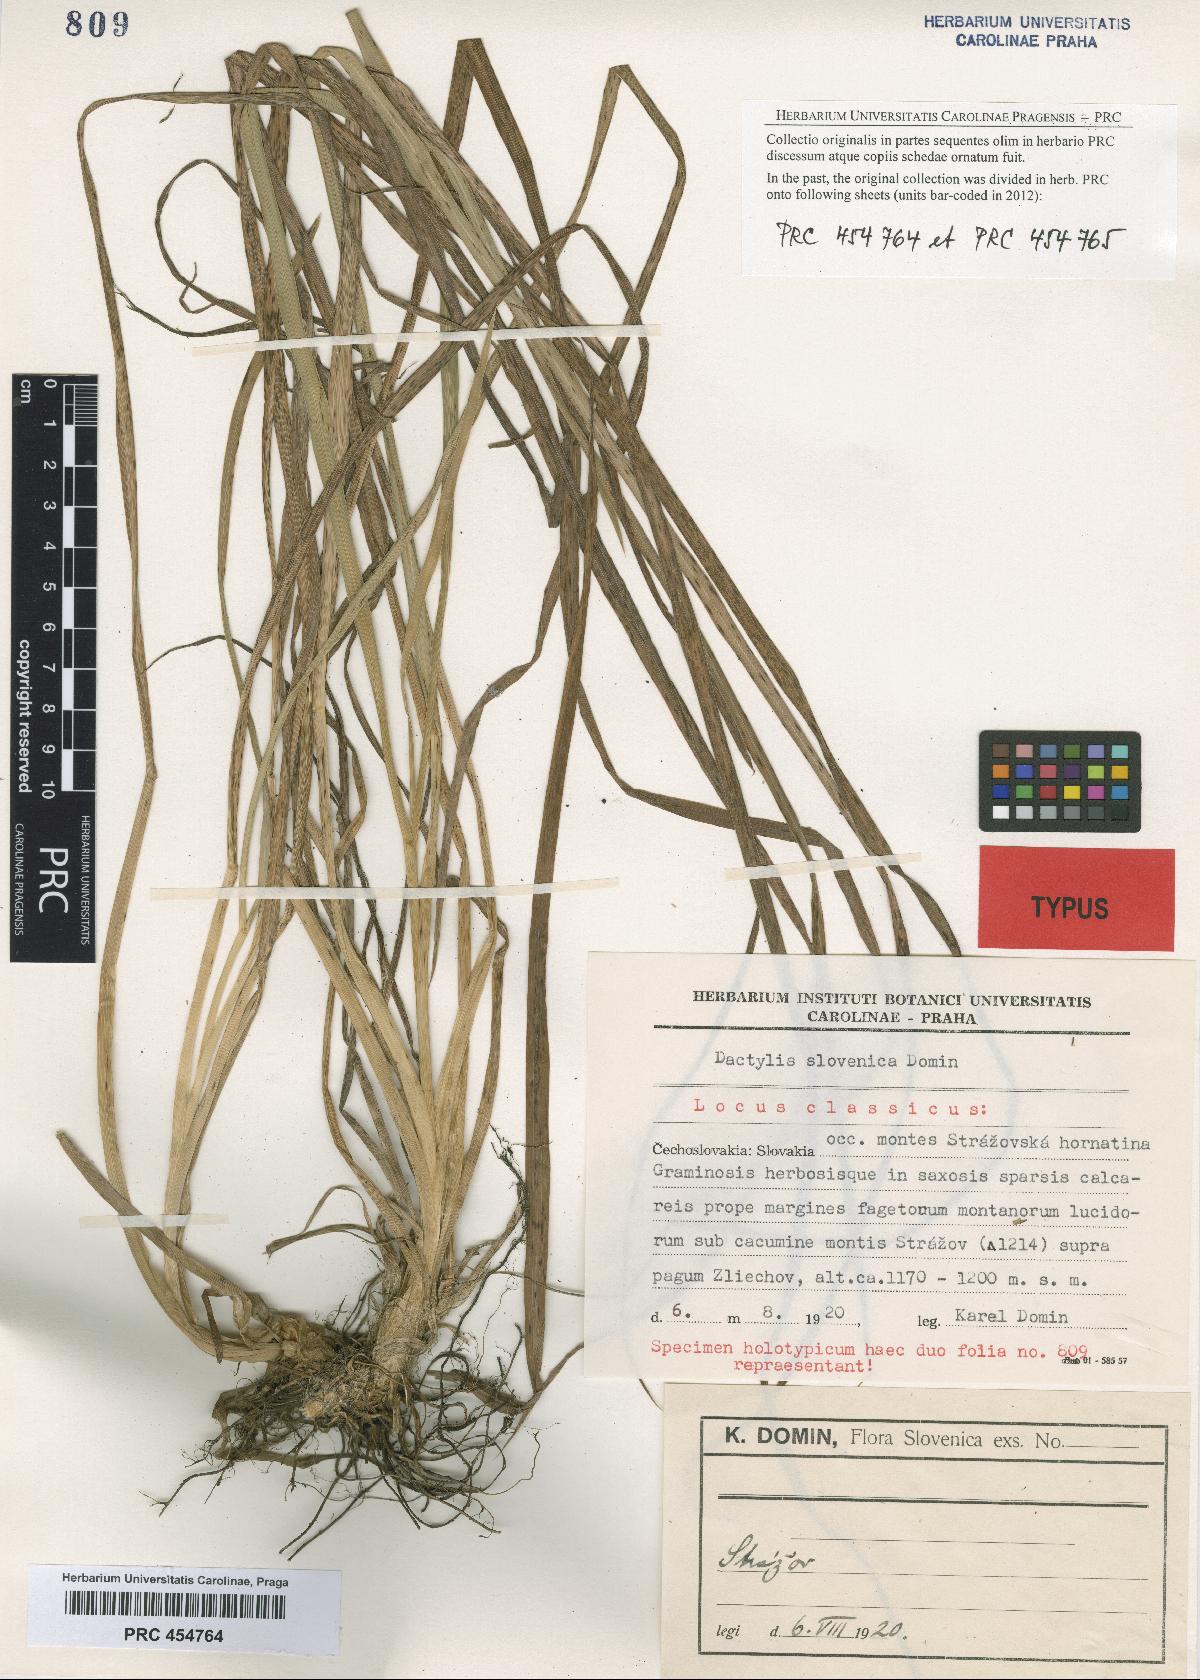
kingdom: Plantae
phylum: Tracheophyta
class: Liliopsida
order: Poales
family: Poaceae
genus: Dactylis
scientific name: Dactylis glomerata
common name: Orchardgrass
